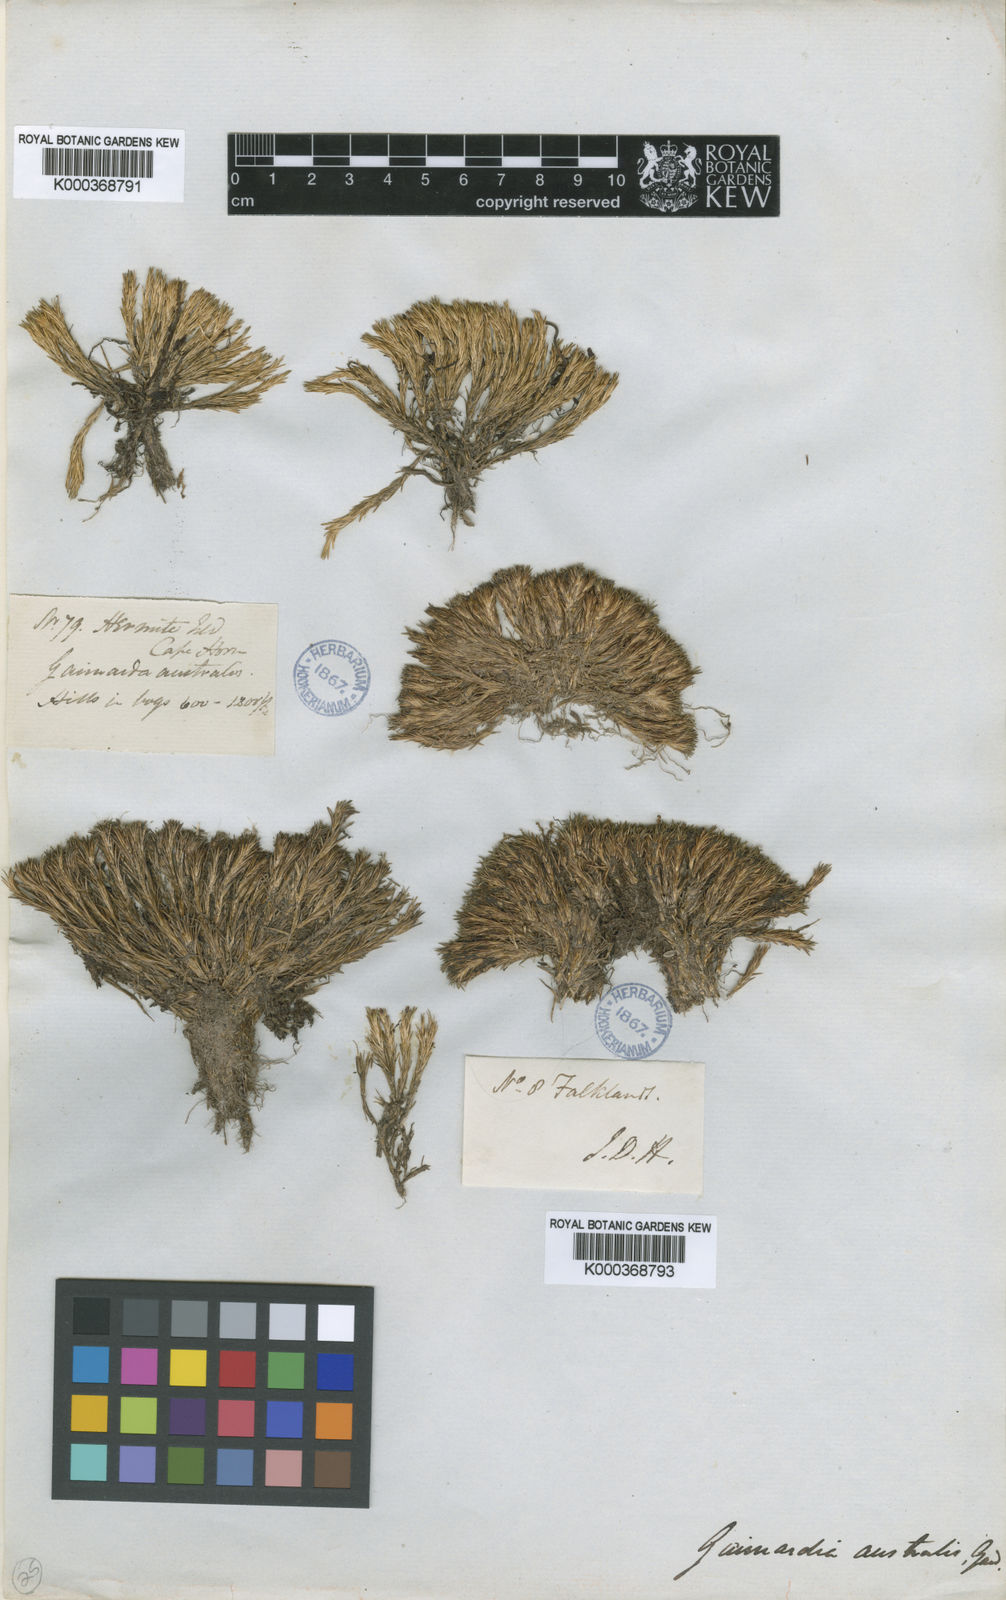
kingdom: Plantae
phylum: Tracheophyta
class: Liliopsida
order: Poales
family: Restionaceae
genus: Gaimardia
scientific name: Gaimardia australis
